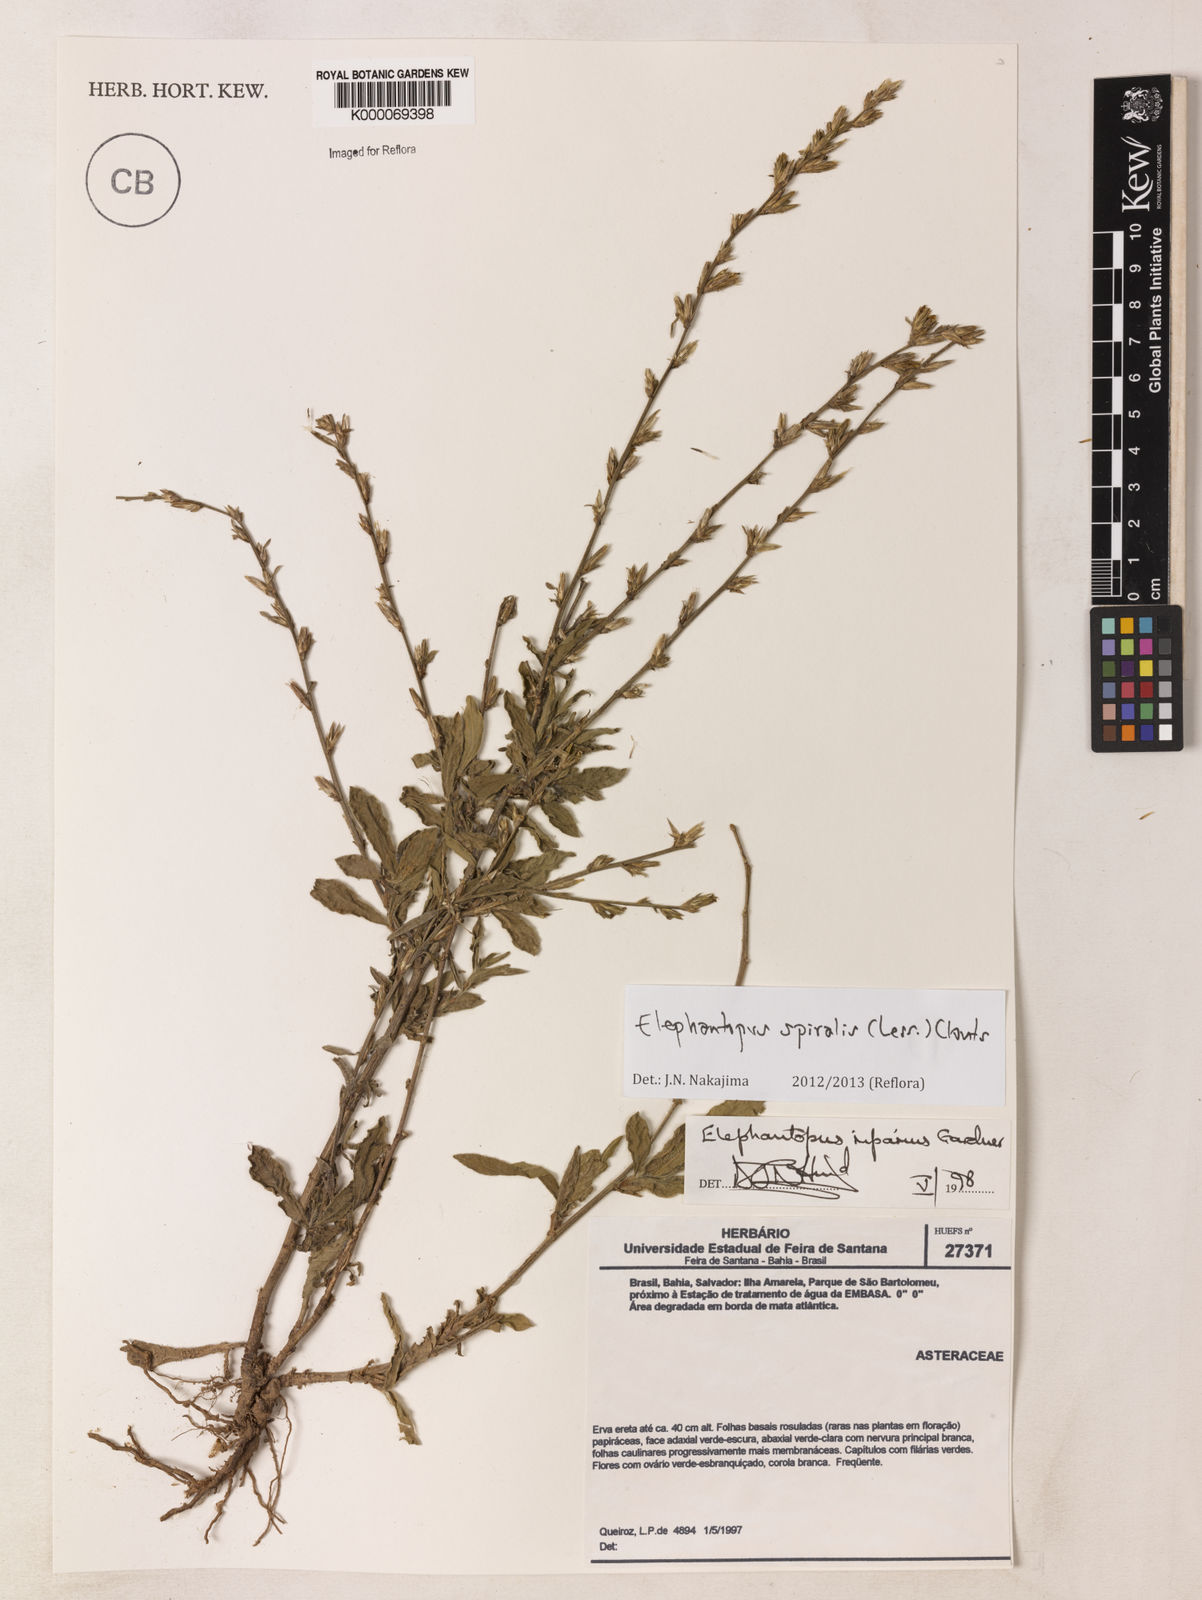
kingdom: Plantae
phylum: Tracheophyta
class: Magnoliopsida
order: Asterales
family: Asteraceae
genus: Elephantopus
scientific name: Elephantopus riparius
